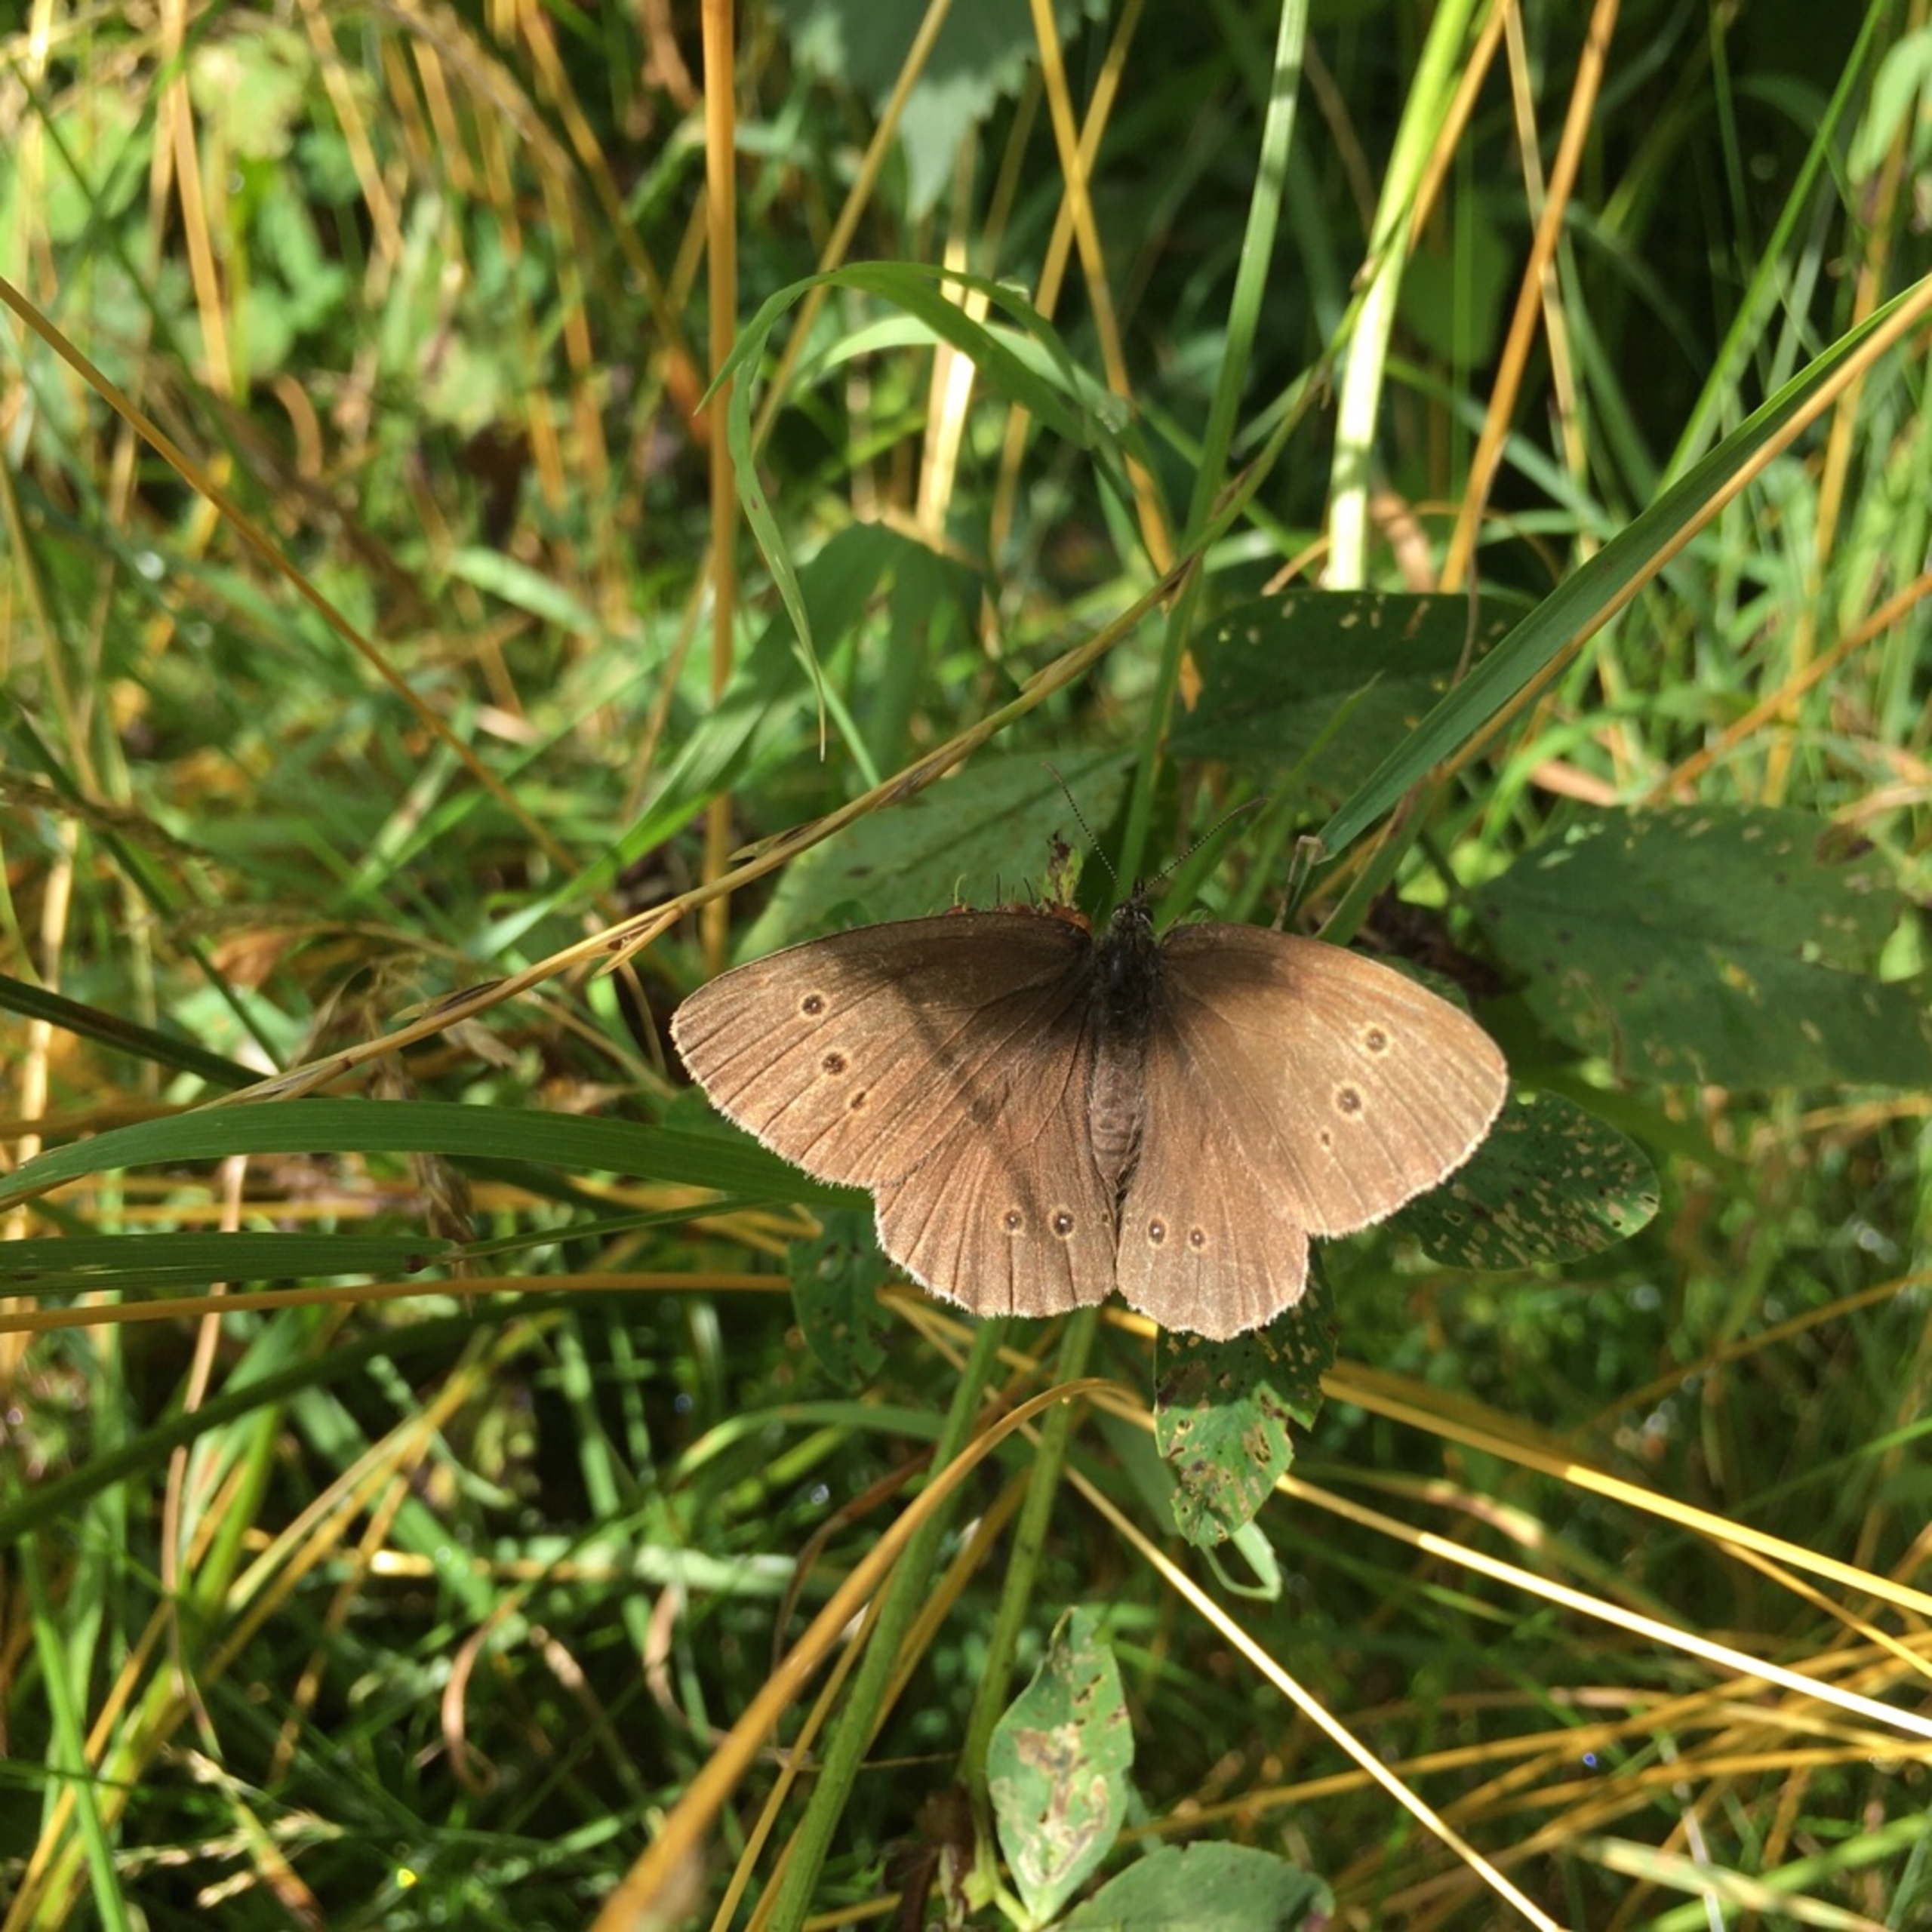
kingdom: Animalia
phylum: Arthropoda
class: Insecta
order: Lepidoptera
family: Nymphalidae
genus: Aphantopus
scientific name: Aphantopus hyperantus
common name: Engrandøje
